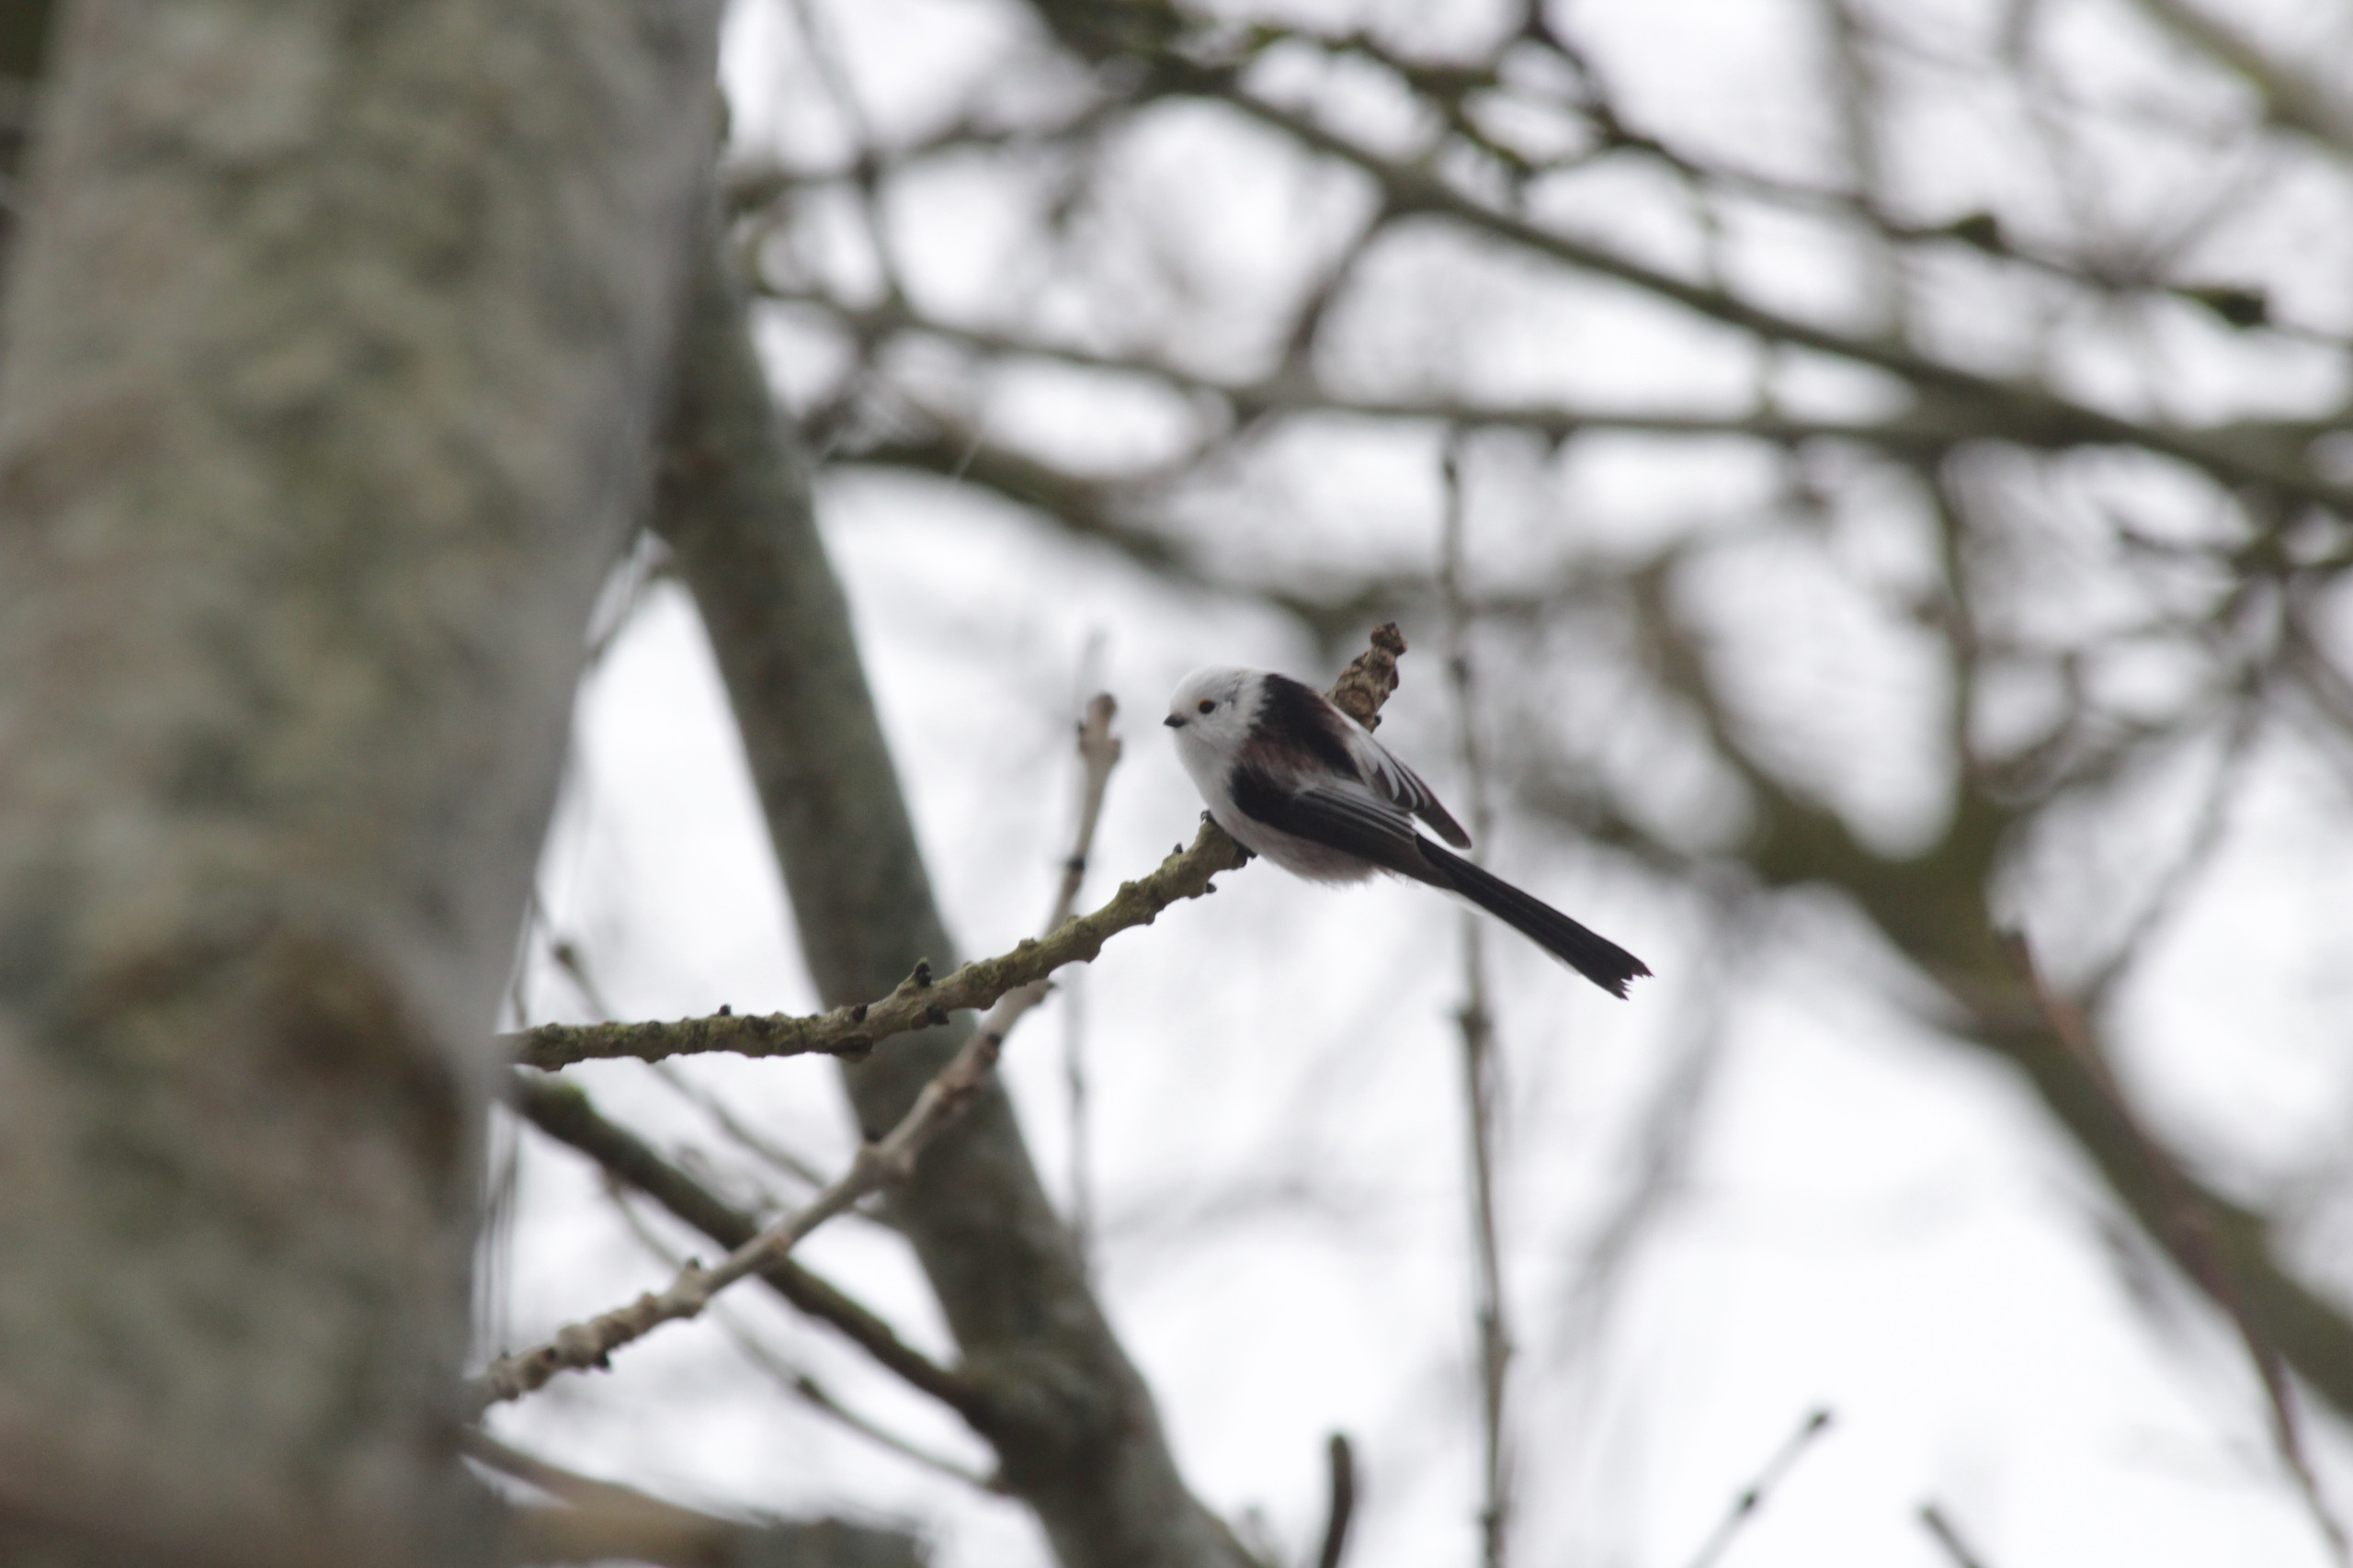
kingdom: Animalia
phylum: Chordata
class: Aves
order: Passeriformes
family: Aegithalidae
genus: Aegithalos
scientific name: Aegithalos caudatus
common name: Halemejse
